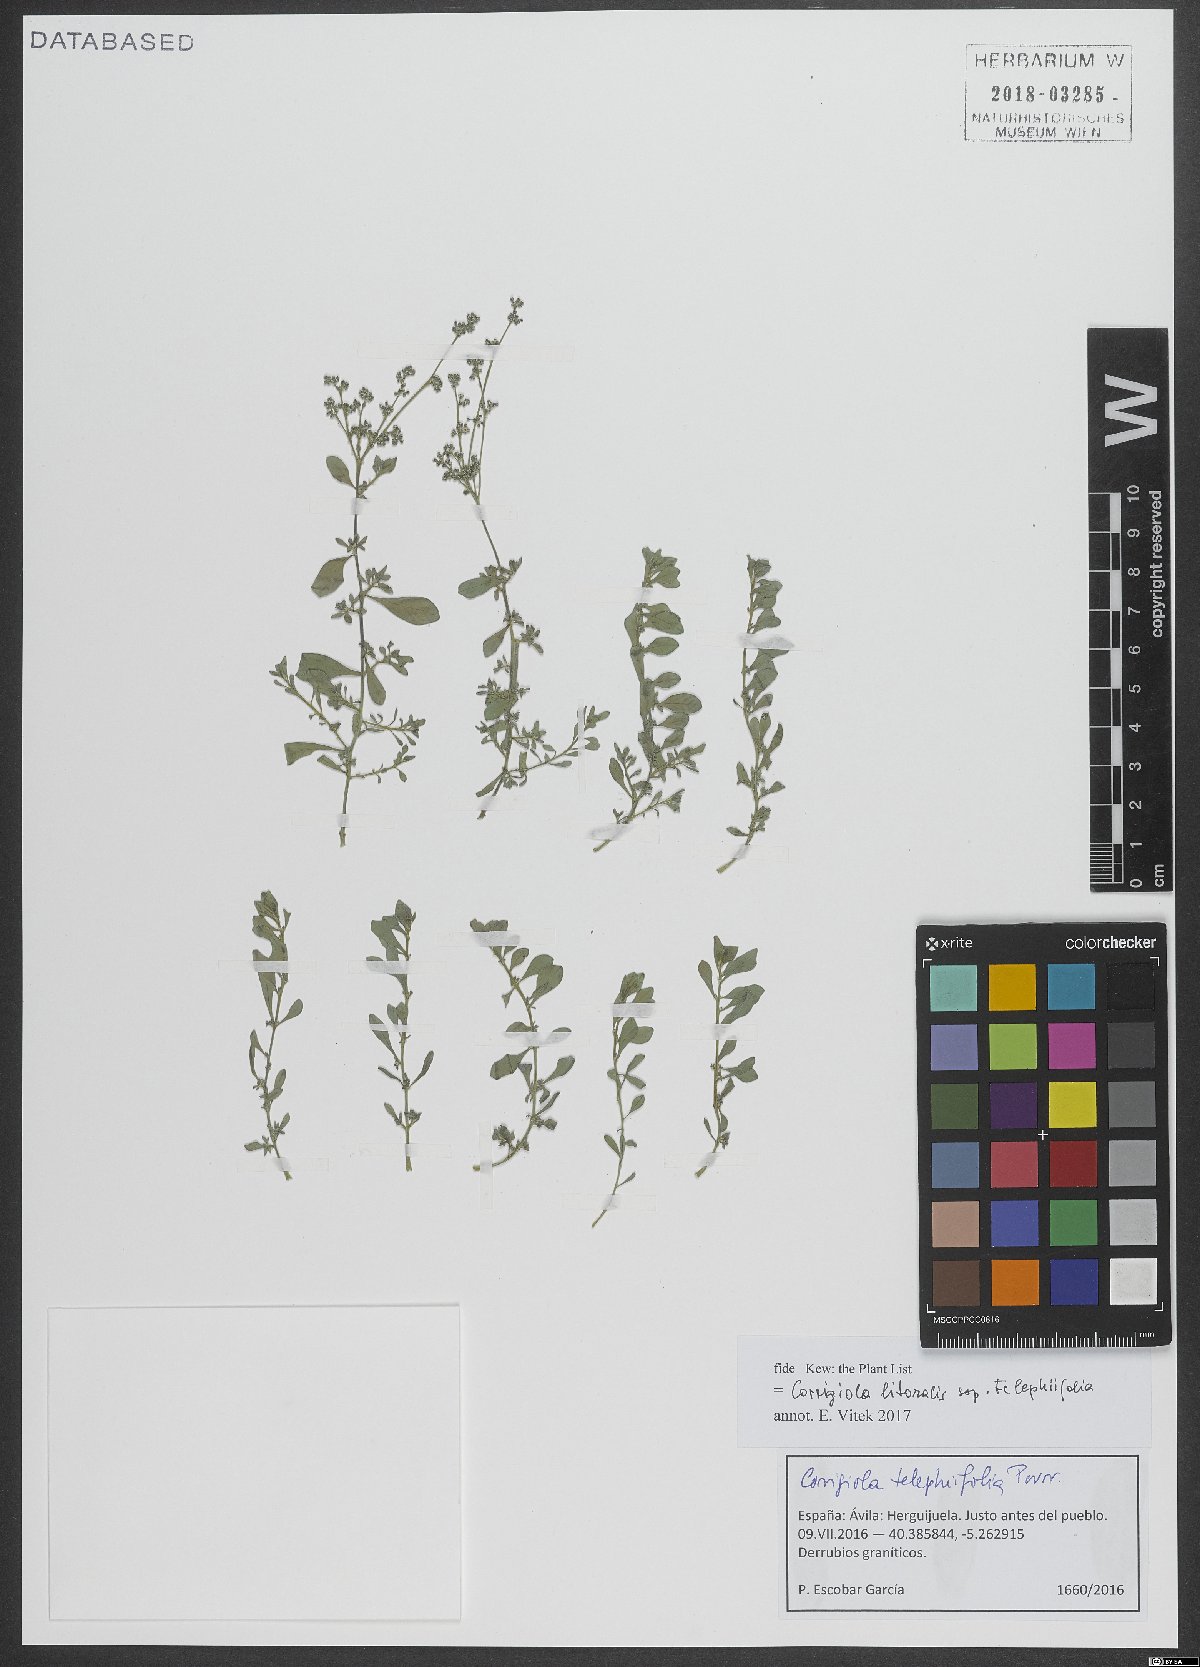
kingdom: Plantae
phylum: Tracheophyta
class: Magnoliopsida
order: Caryophyllales
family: Caryophyllaceae
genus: Corrigiola
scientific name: Corrigiola telephiifolia
